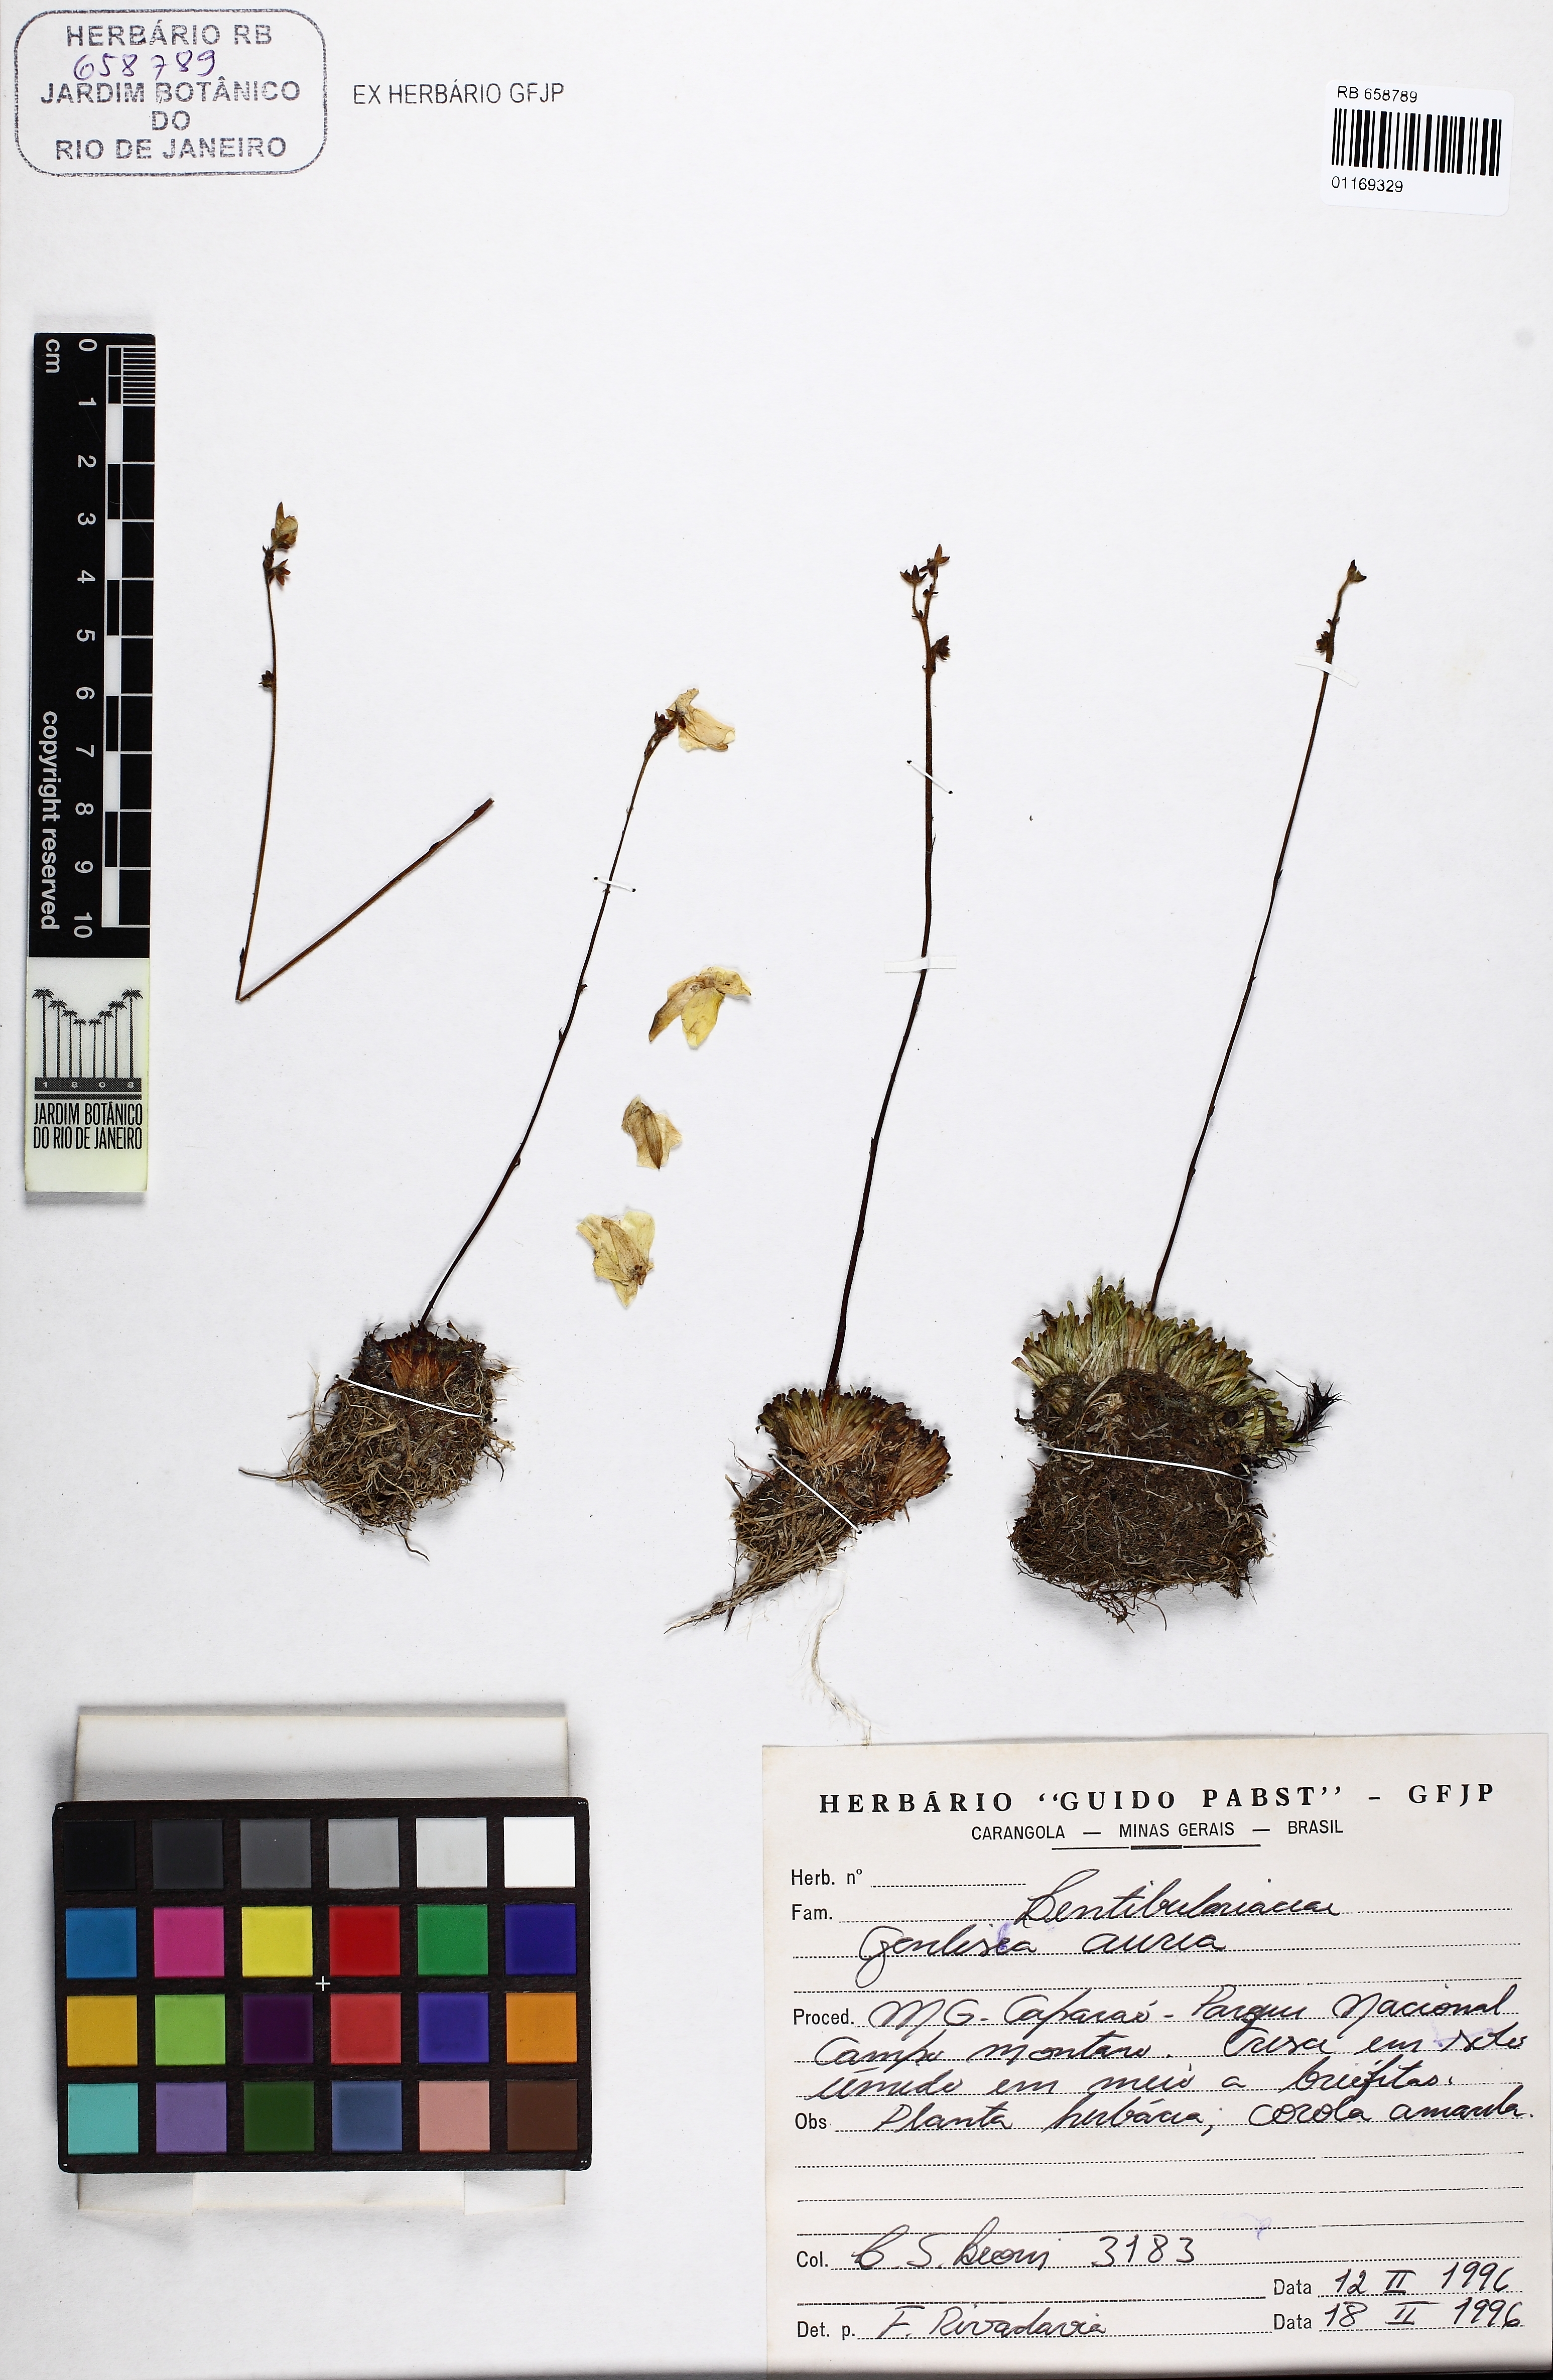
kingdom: Plantae
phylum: Tracheophyta
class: Magnoliopsida
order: Lamiales
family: Lentibulariaceae
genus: Genlisea
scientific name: Genlisea aurea
